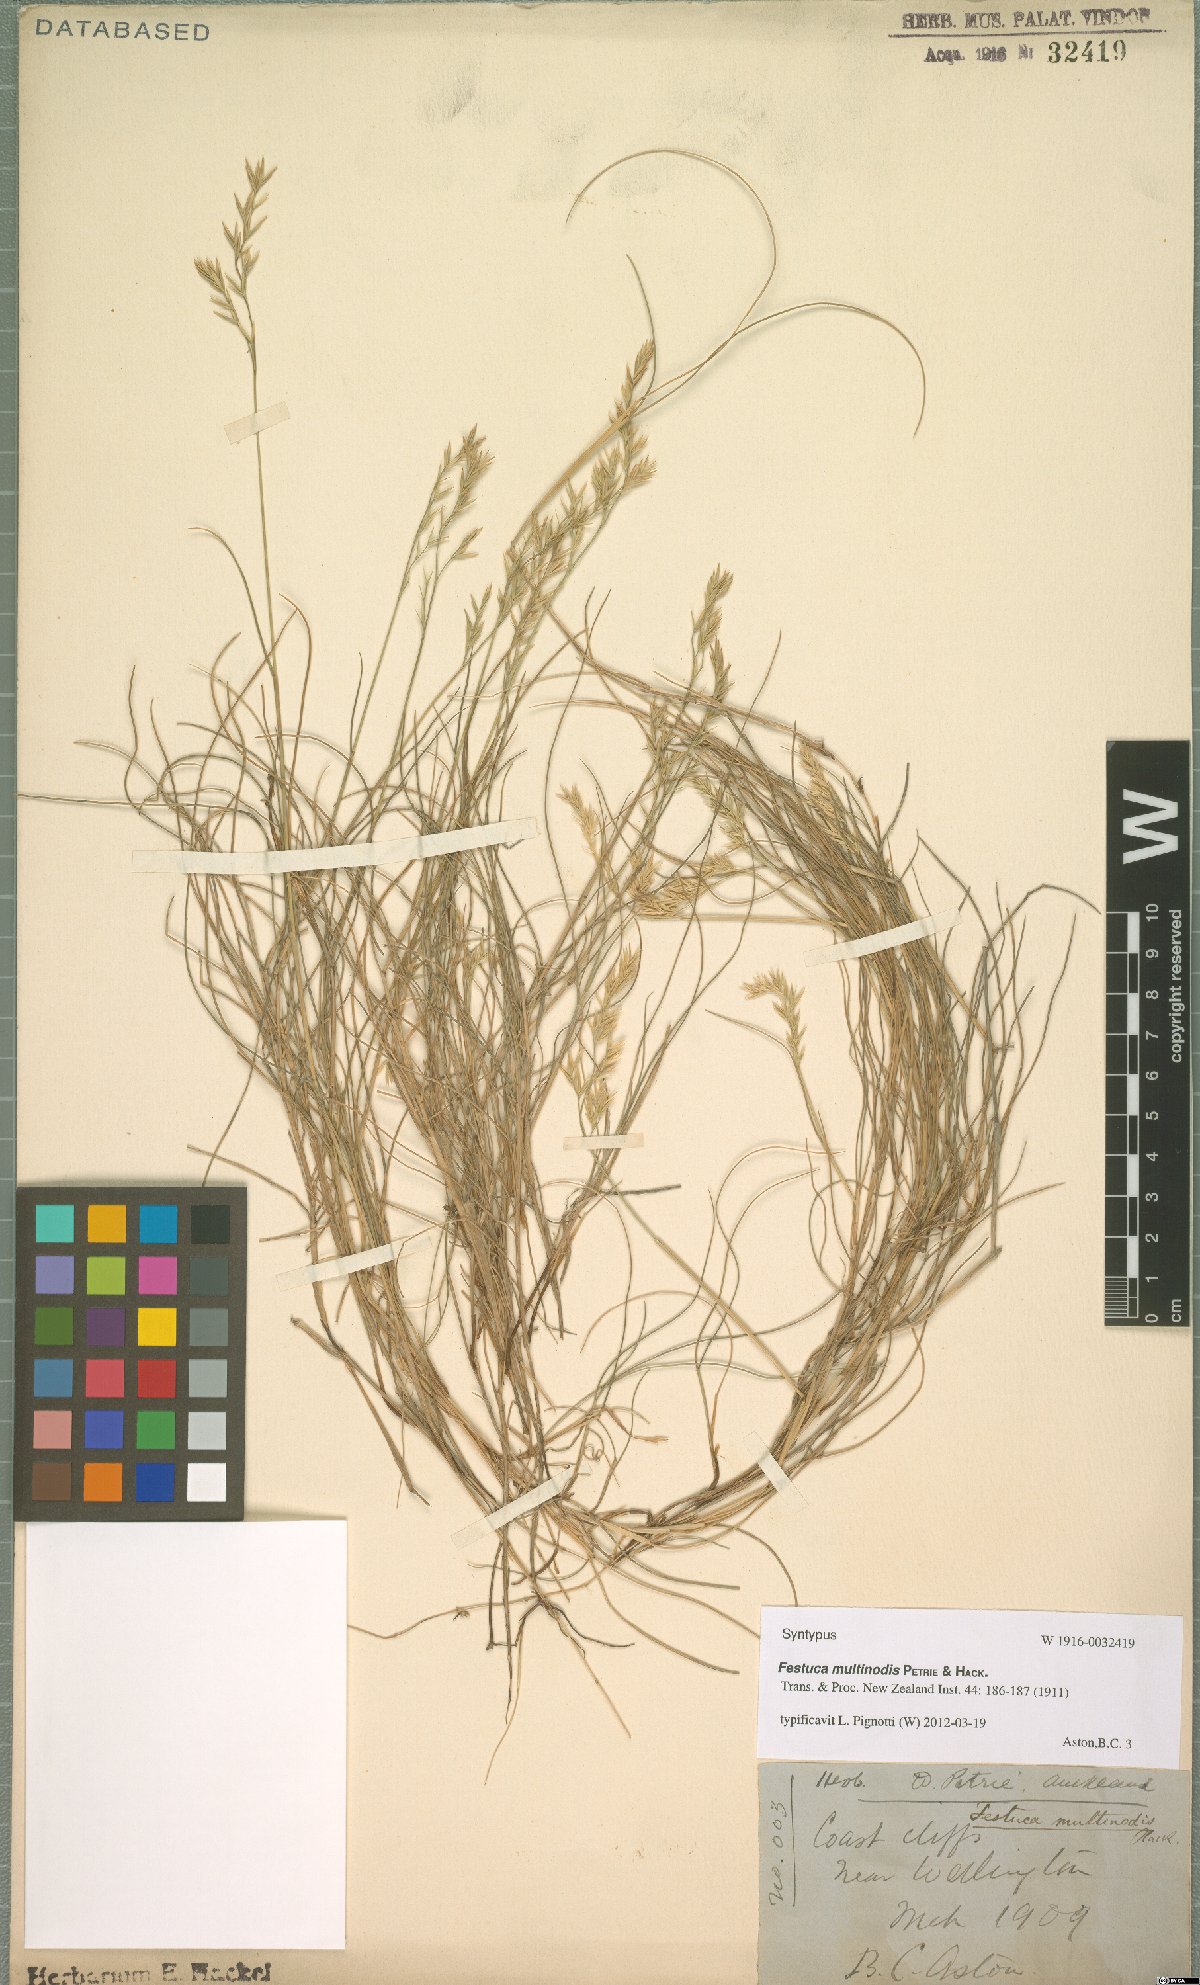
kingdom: Plantae
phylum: Tracheophyta
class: Liliopsida
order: Poales
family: Poaceae
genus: Festuca
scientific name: Festuca multinodis
